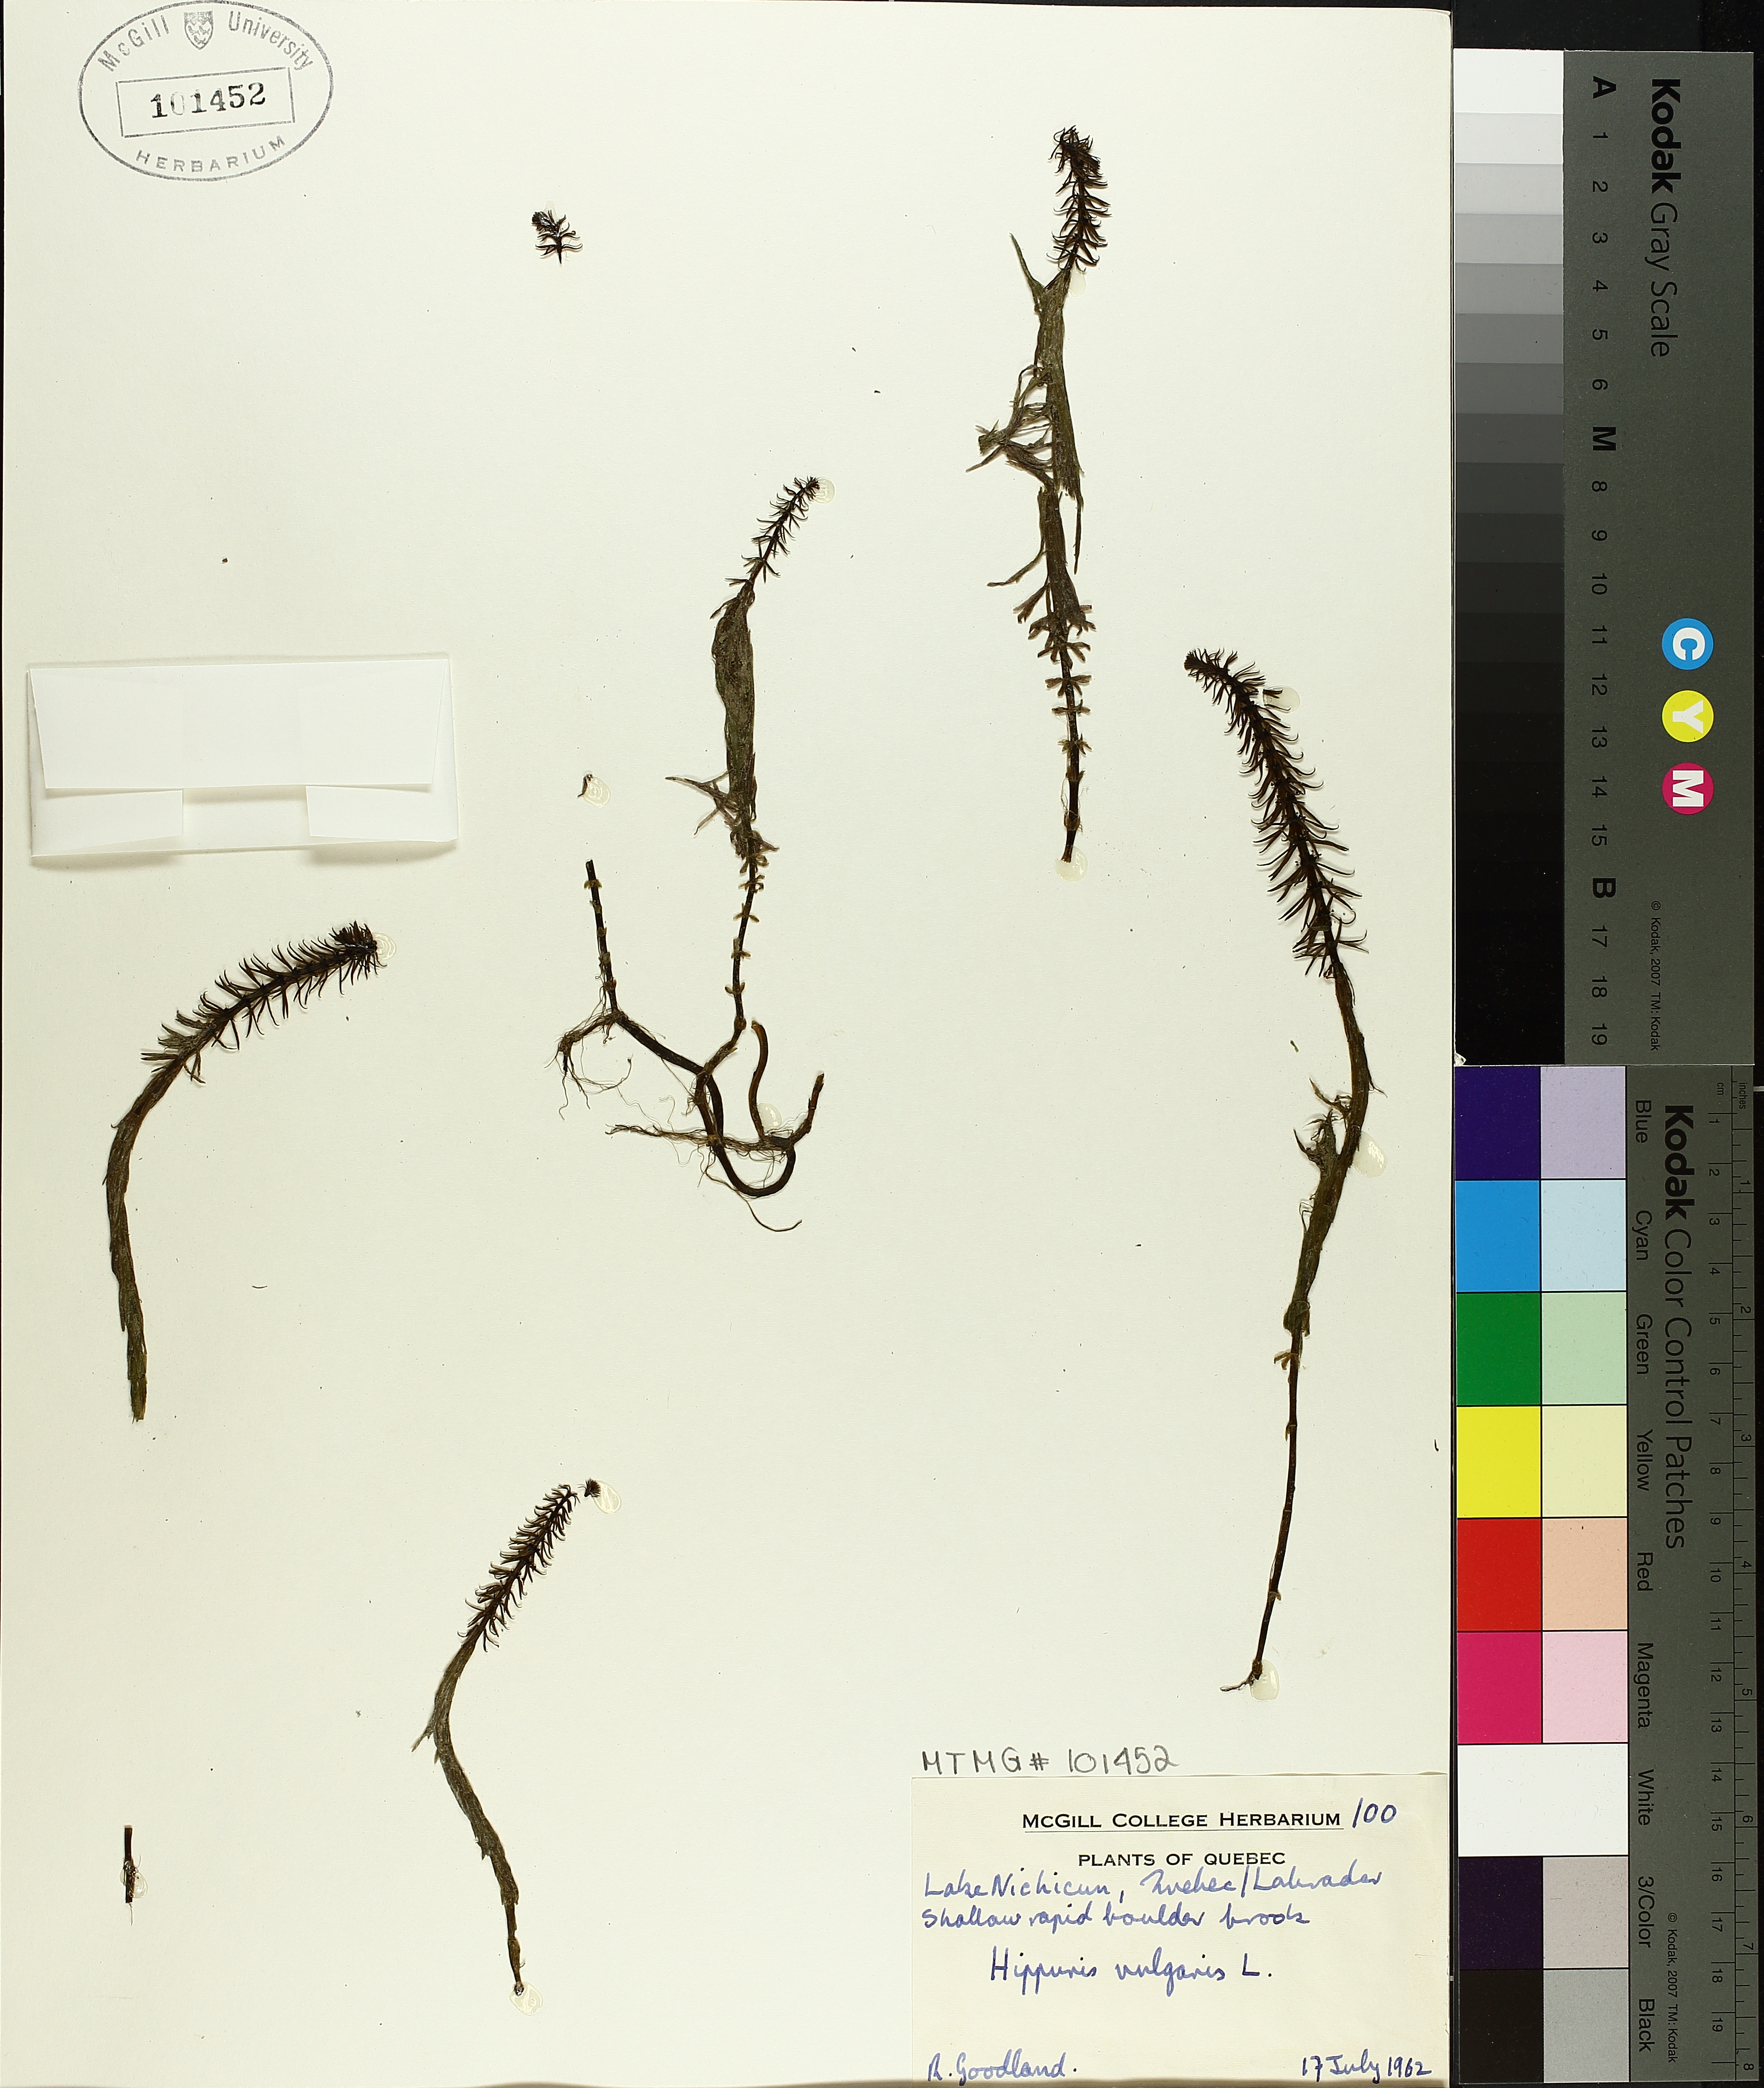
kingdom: Plantae
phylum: Tracheophyta
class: Magnoliopsida
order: Lamiales
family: Plantaginaceae
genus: Hippuris
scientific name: Hippuris vulgaris
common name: Mare's-tail
